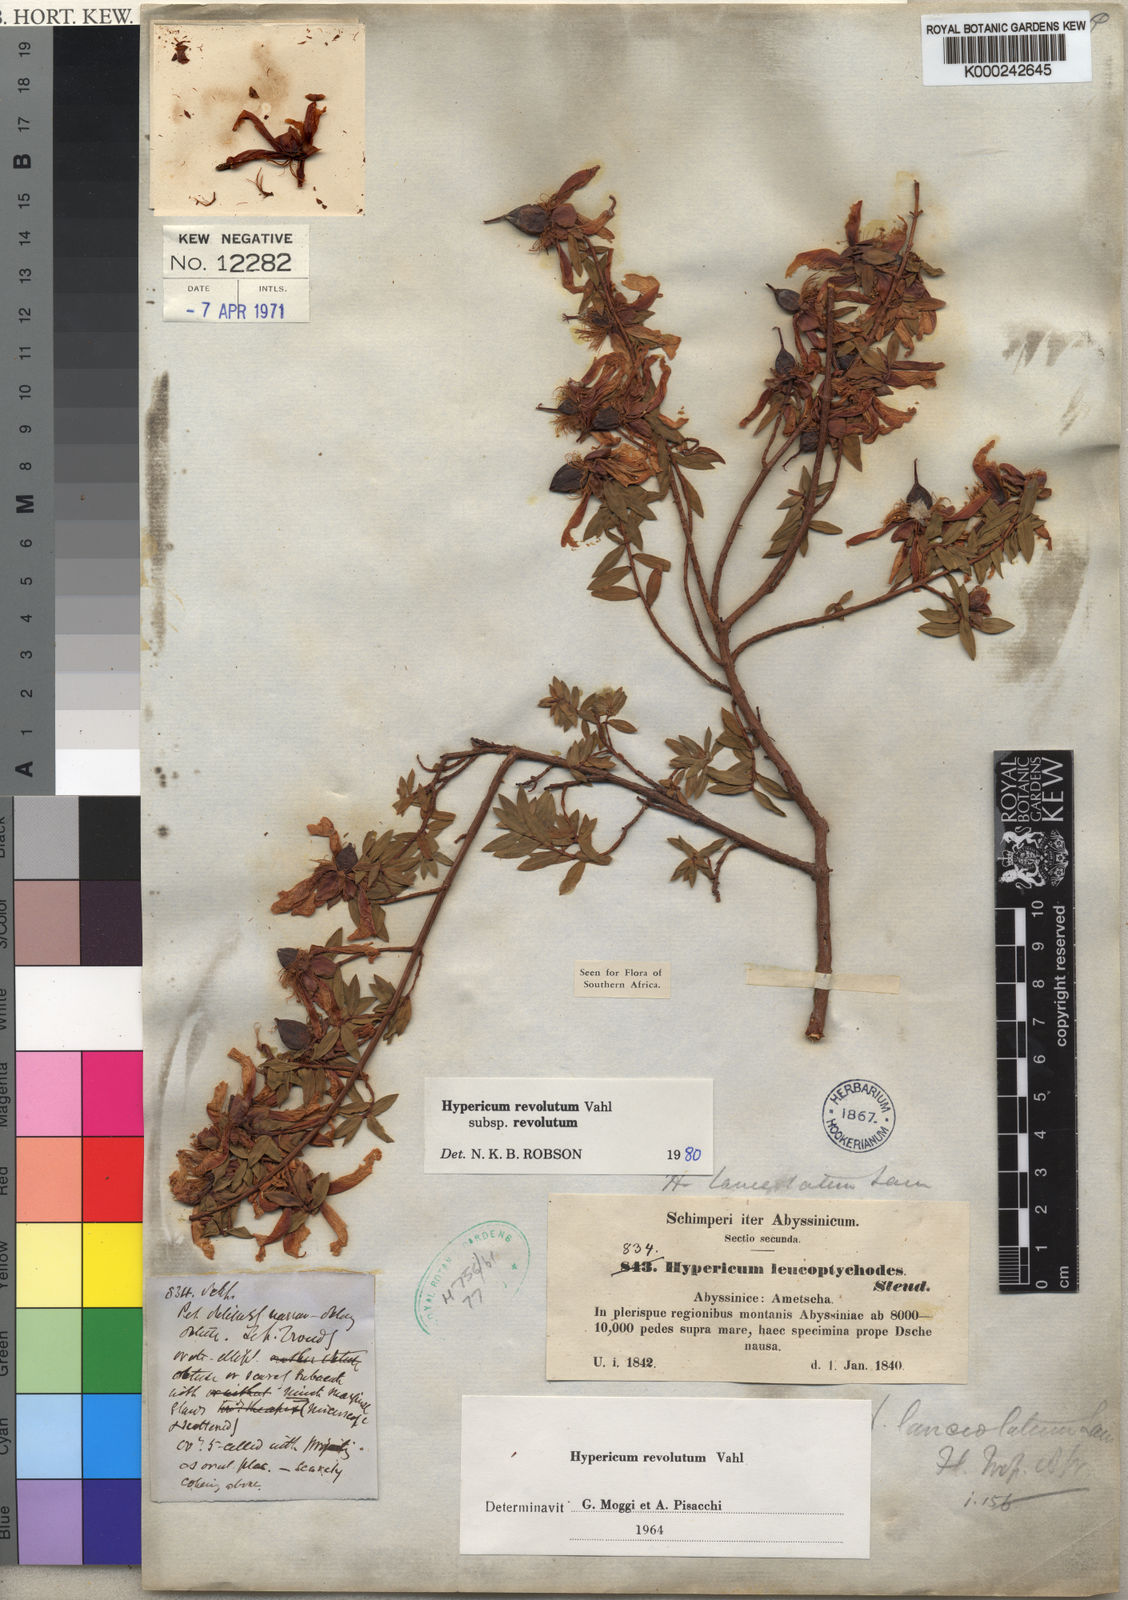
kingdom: Plantae
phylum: Tracheophyta
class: Magnoliopsida
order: Malpighiales
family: Hypericaceae
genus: Hypericum
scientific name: Hypericum revolutum
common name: Curry bush
